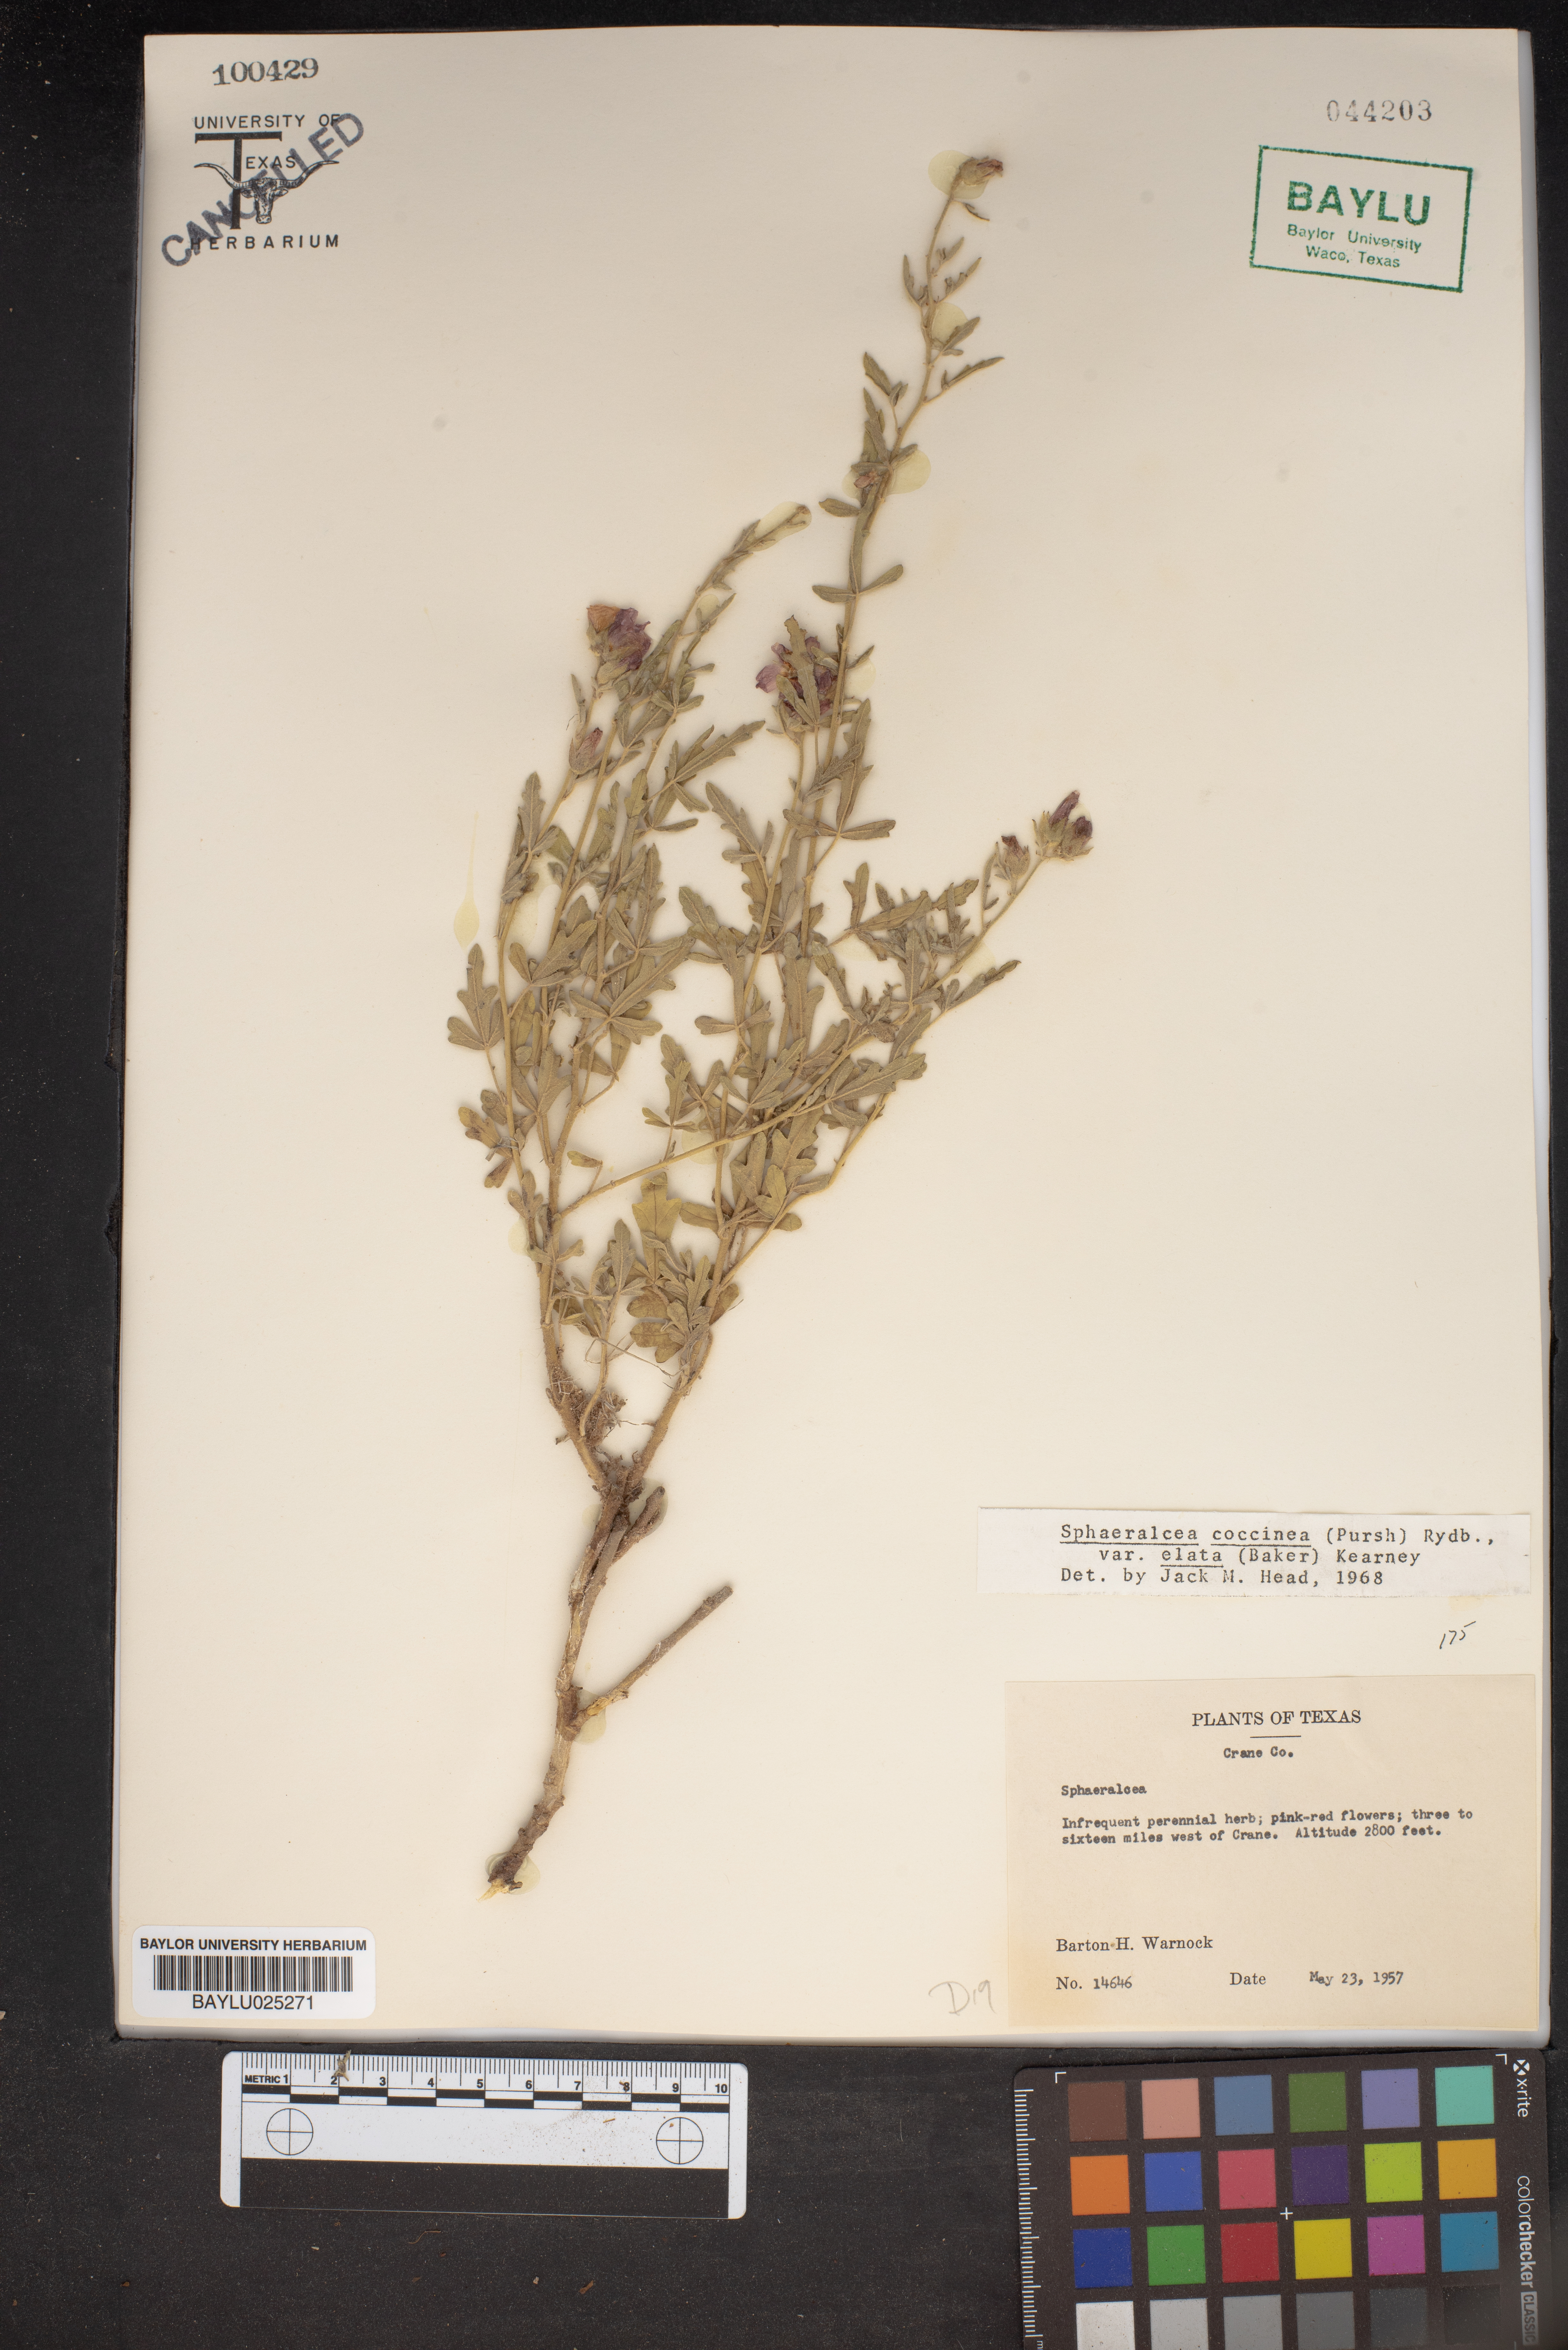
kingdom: Plantae
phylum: Tracheophyta
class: Magnoliopsida
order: Malvales
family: Malvaceae
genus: Sphaeralcea
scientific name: Sphaeralcea coccinea
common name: Moss-rose
